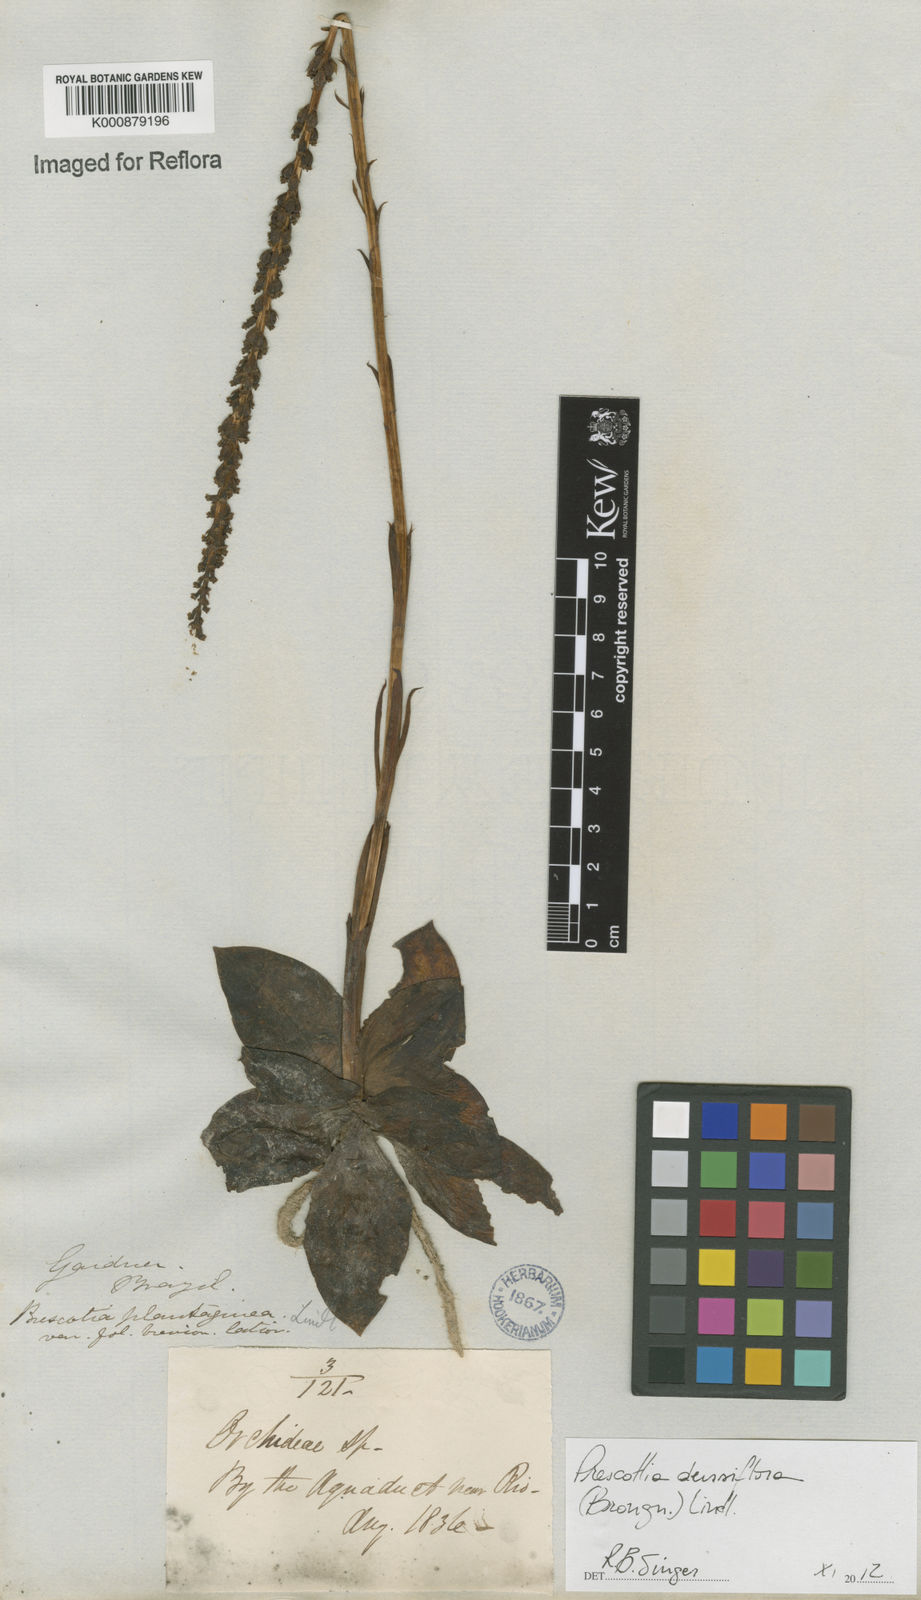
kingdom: Plantae
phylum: Tracheophyta
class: Liliopsida
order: Asparagales
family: Orchidaceae
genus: Prescottia
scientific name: Prescottia densiflora
